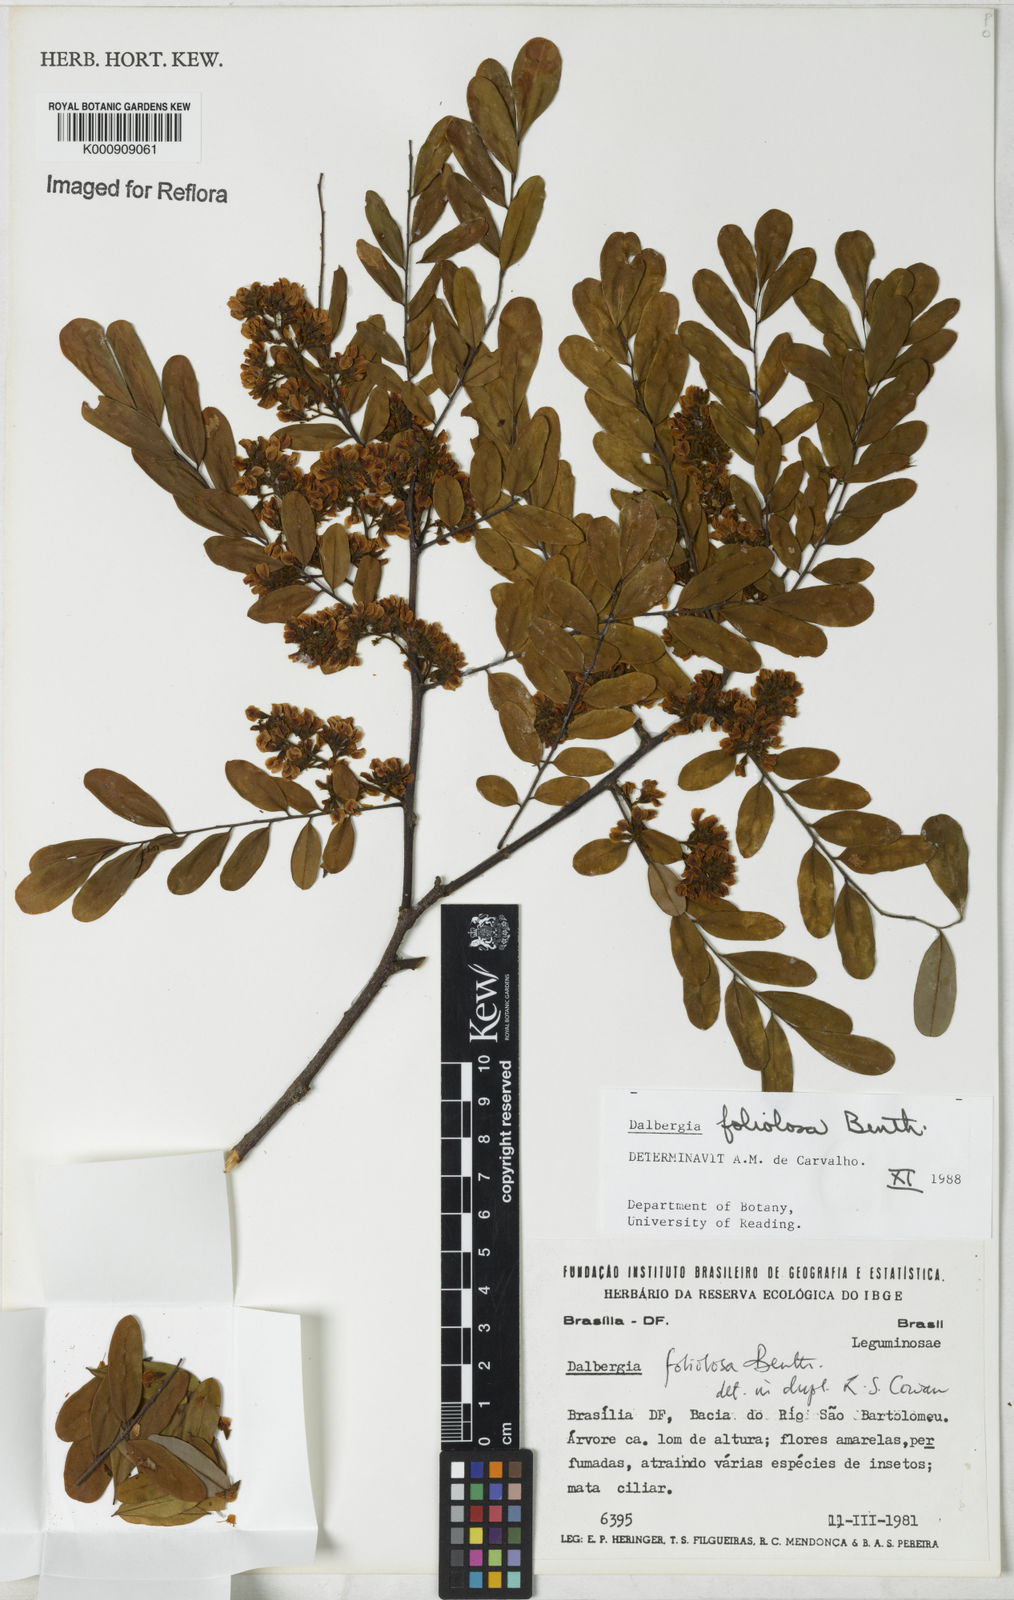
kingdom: Plantae
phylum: Tracheophyta
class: Magnoliopsida
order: Fabales
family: Fabaceae
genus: Dalbergia
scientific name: Dalbergia foliolosa
